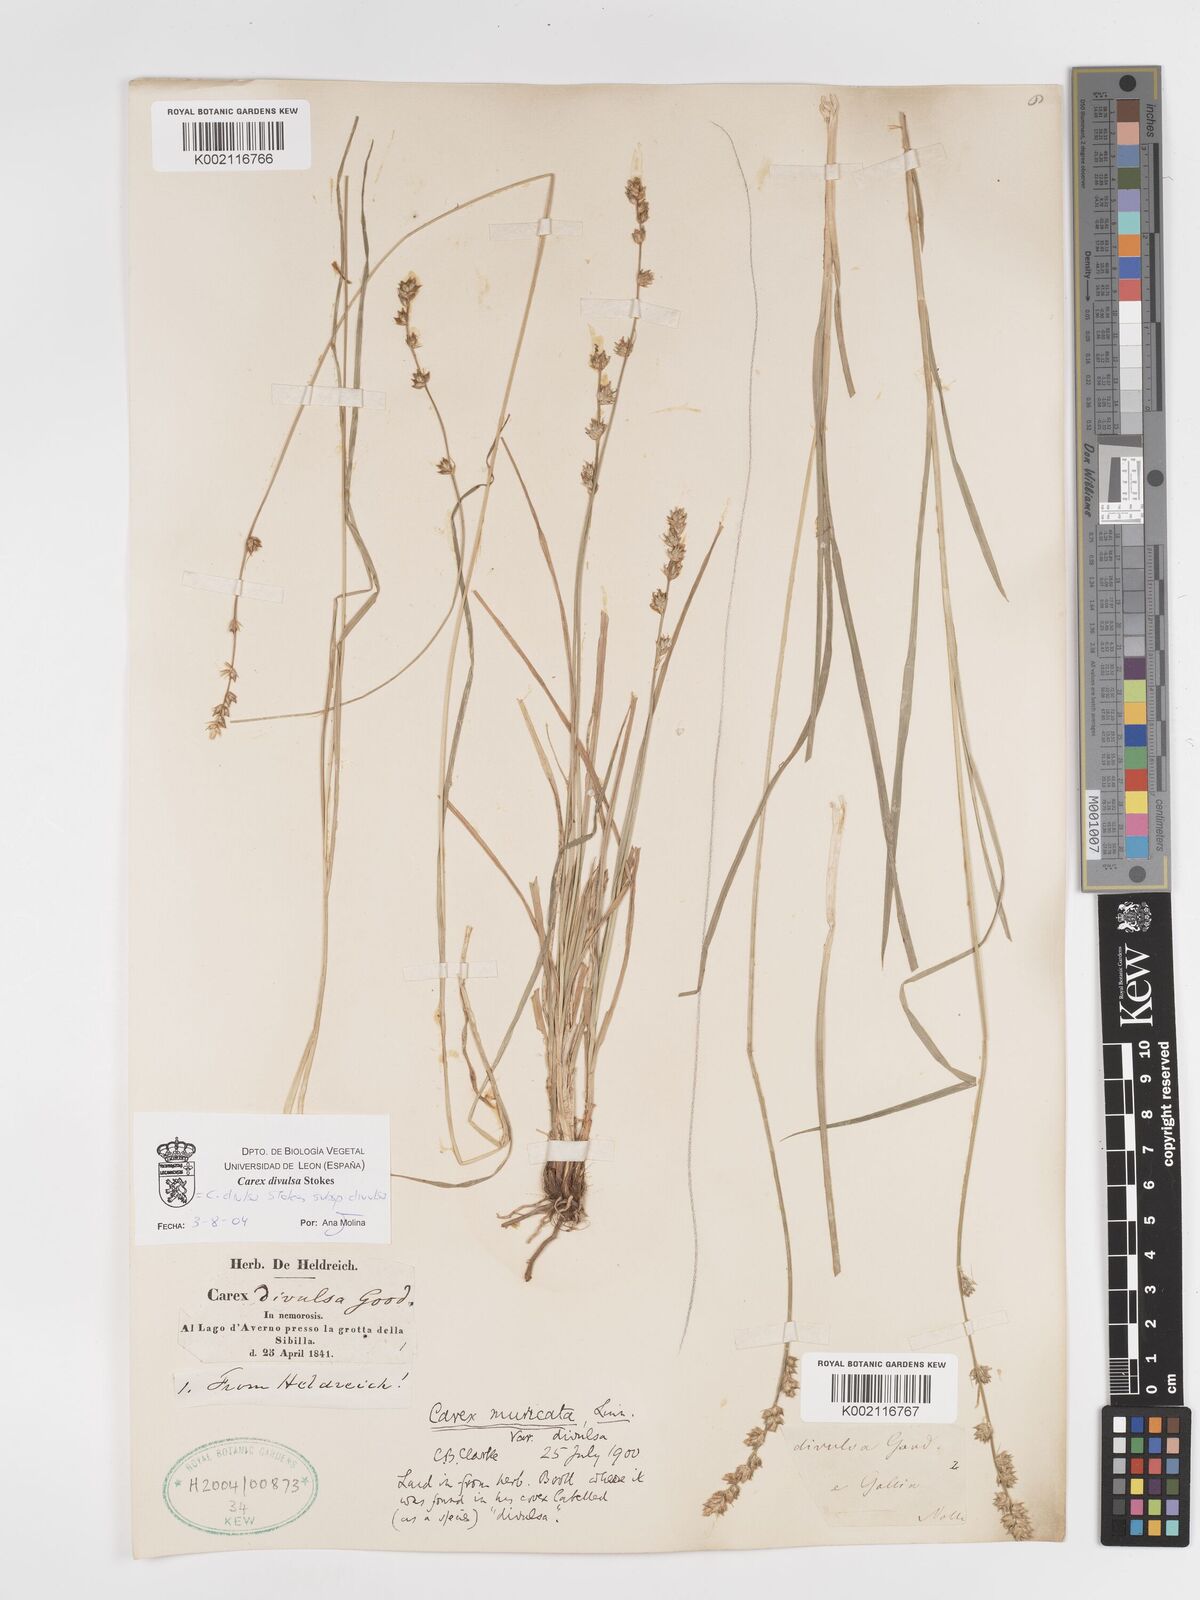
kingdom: Plantae
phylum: Tracheophyta
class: Liliopsida
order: Poales
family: Cyperaceae
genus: Carex
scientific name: Carex divulsa
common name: Grassland sedge
